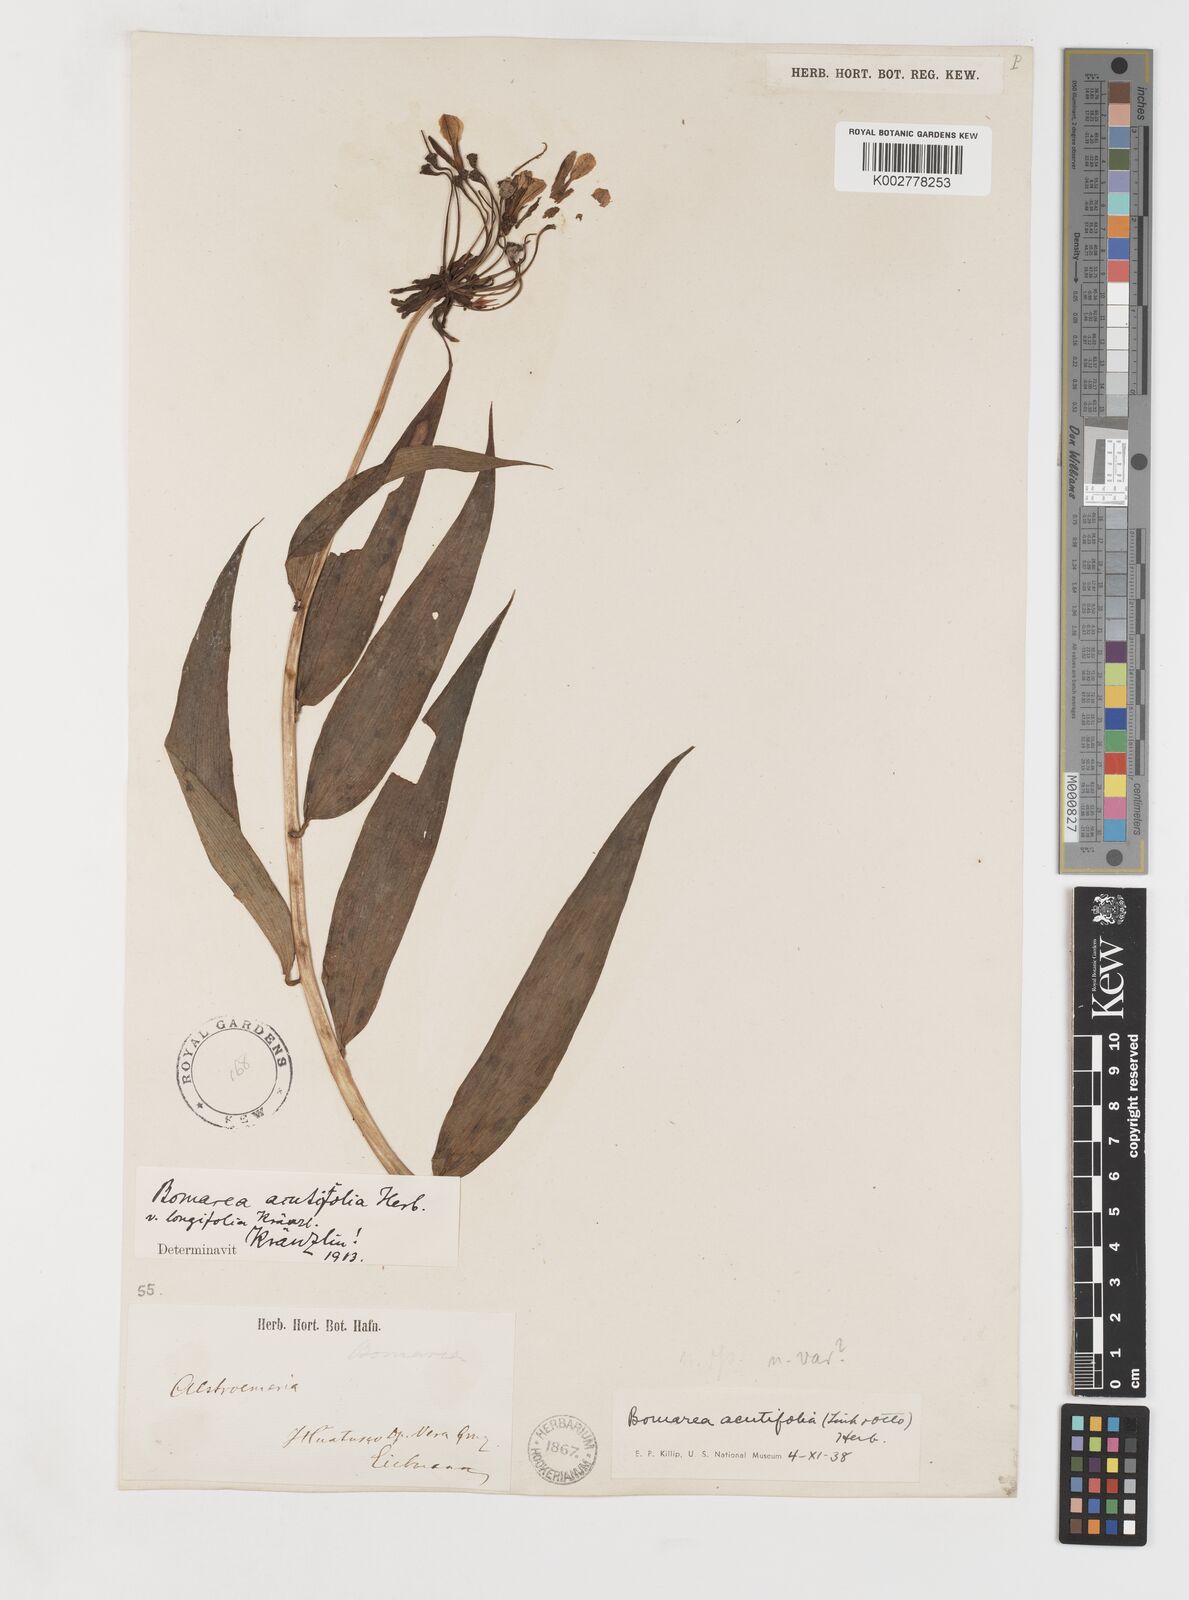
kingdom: Plantae
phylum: Tracheophyta
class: Liliopsida
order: Liliales
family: Alstroemeriaceae
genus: Bomarea
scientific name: Bomarea acutifolia
